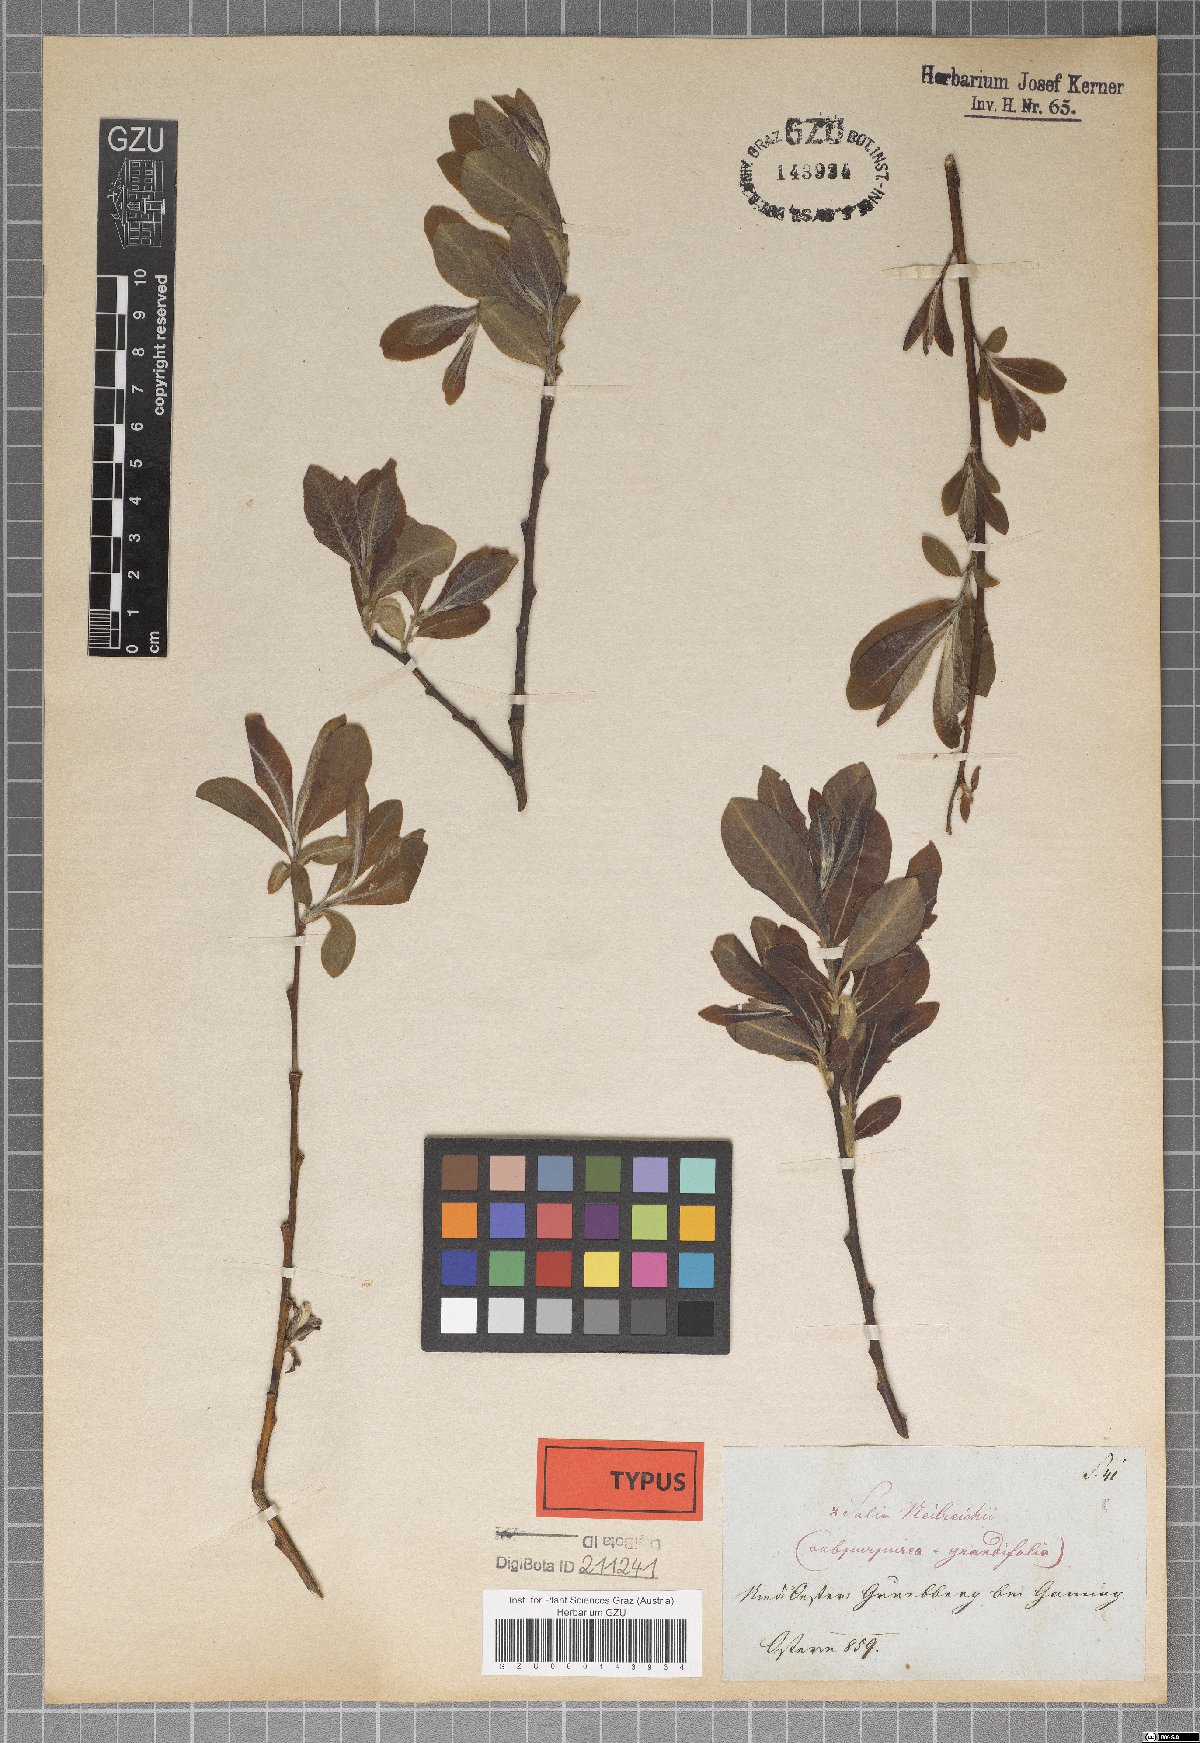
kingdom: Plantae
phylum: Tracheophyta
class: Magnoliopsida
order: Malpighiales
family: Salicaceae
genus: Salix
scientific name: Salix purpurea
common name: Purple willow
